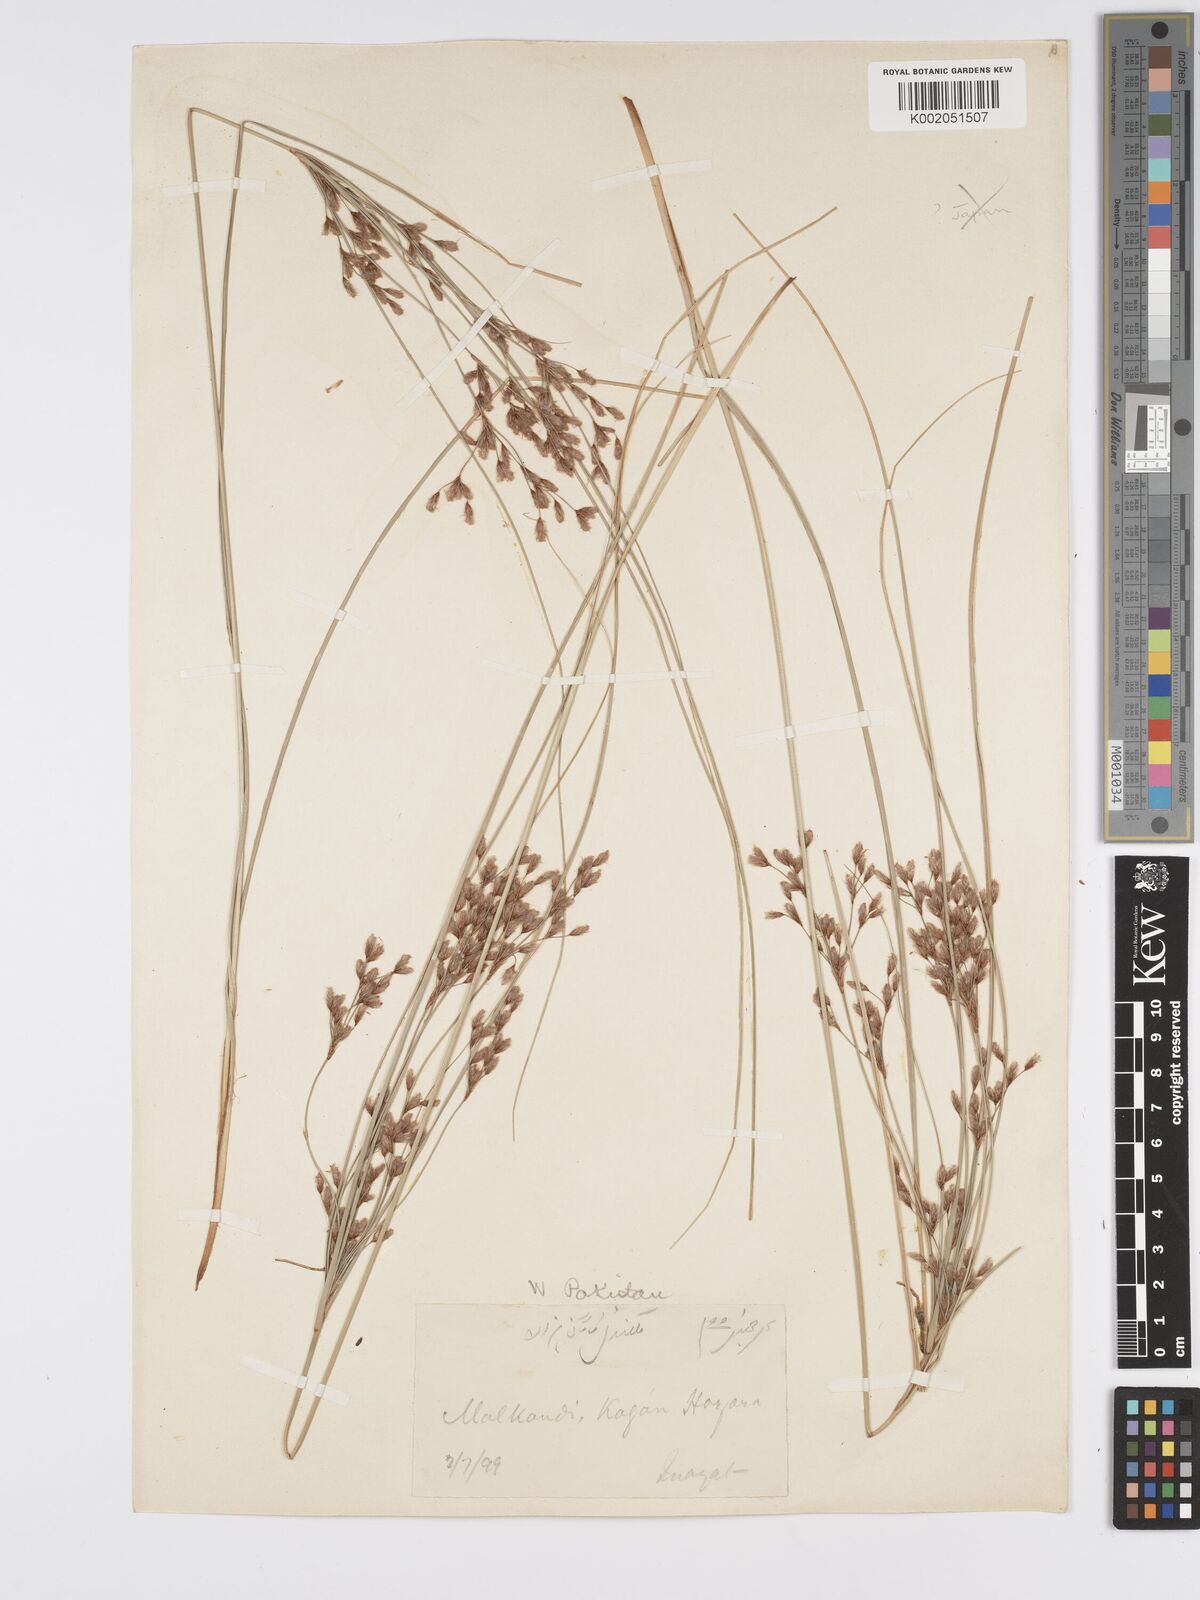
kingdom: Plantae
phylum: Tracheophyta
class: Liliopsida
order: Poales
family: Cyperaceae
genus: Erioscirpus
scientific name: Erioscirpus comosus
